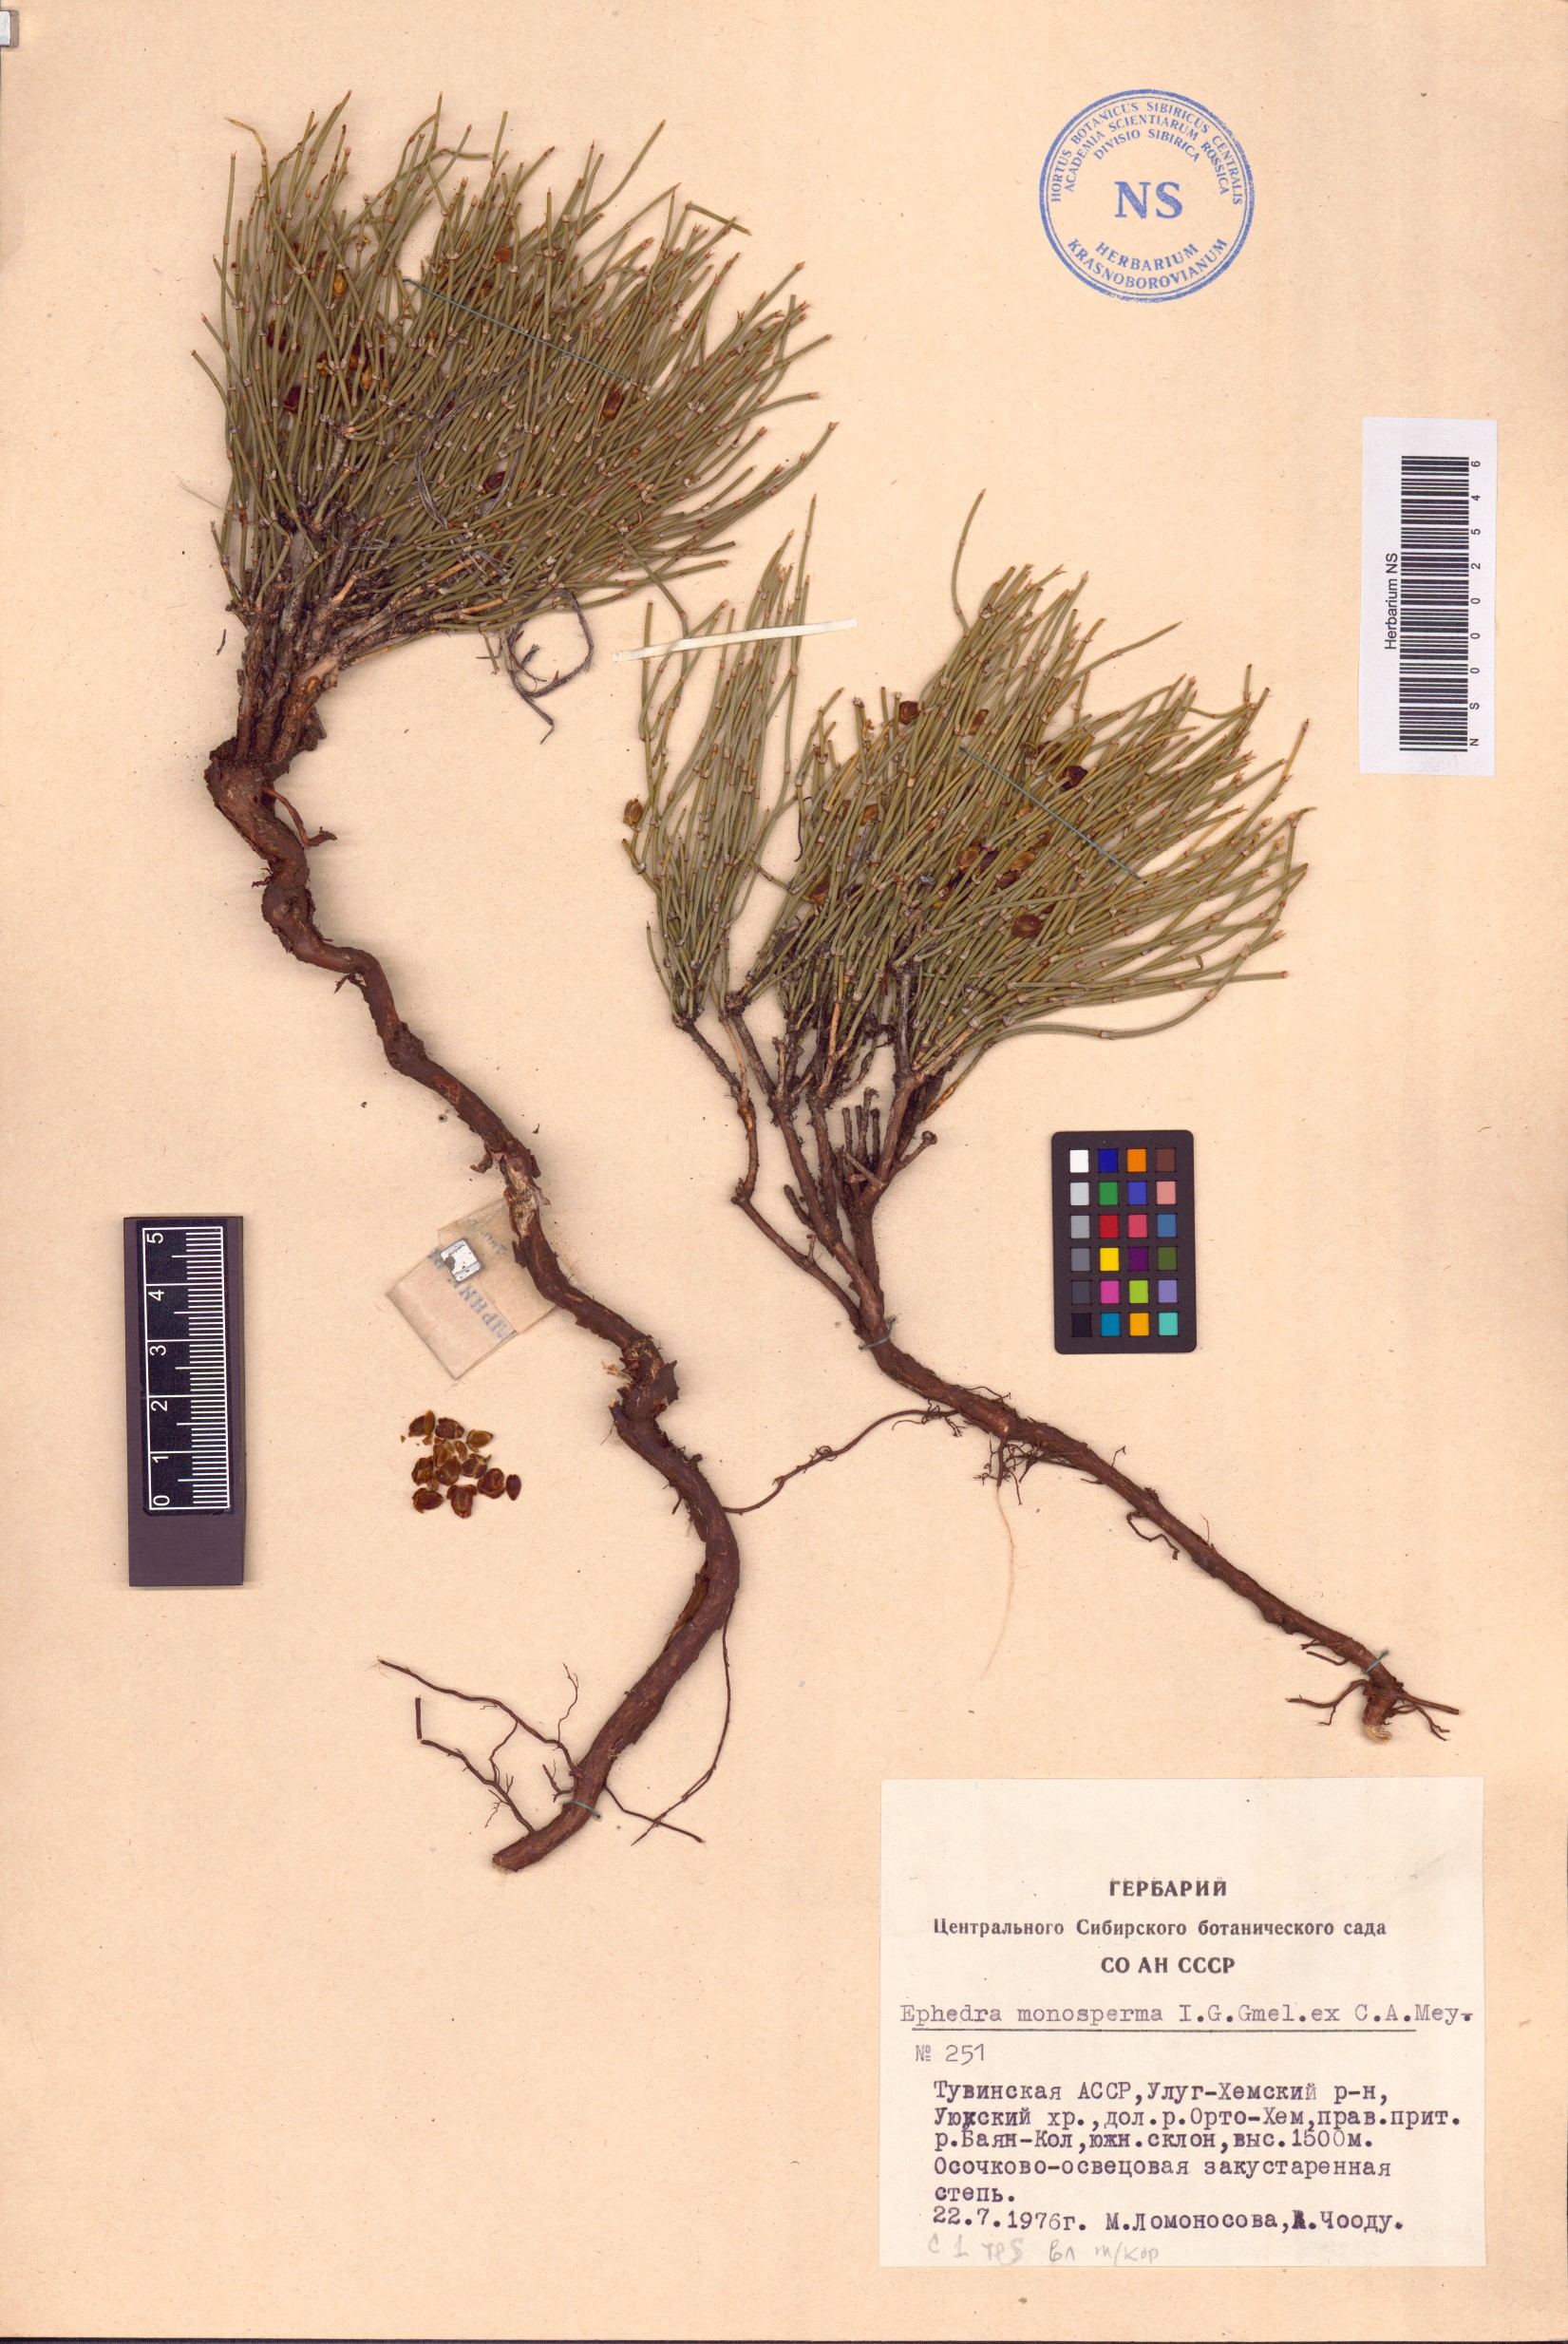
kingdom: Plantae
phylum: Tracheophyta
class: Gnetopsida
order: Ephedrales
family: Ephedraceae
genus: Ephedra
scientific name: Ephedra monosperma
